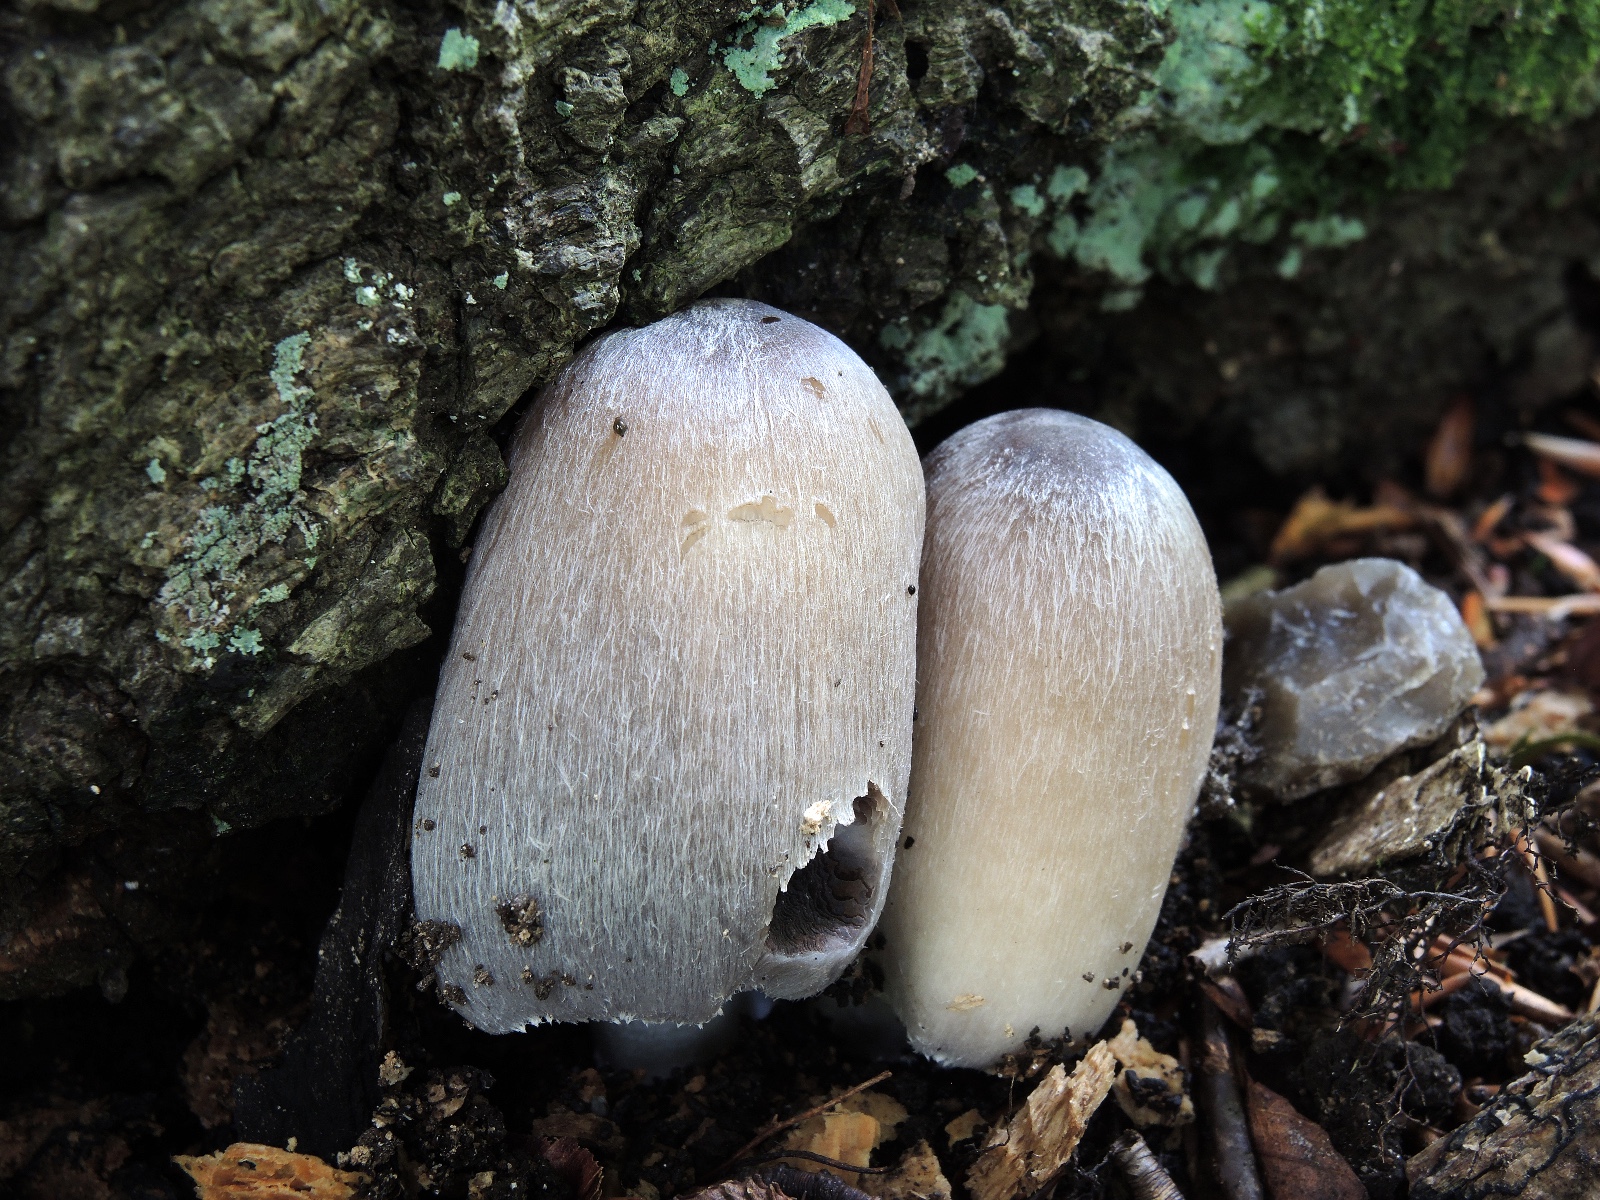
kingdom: Fungi
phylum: Basidiomycota
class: Agaricomycetes
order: Agaricales
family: Psathyrellaceae
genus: Coprinopsis
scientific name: Coprinopsis insignis
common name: stor blækhat
